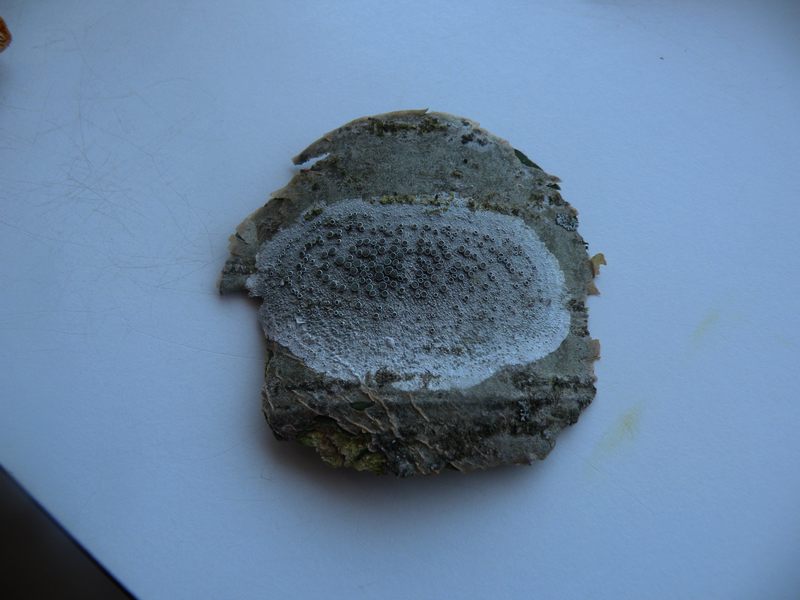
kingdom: Fungi
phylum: Ascomycota
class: Lecanoromycetes
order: Lecanorales
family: Lecanoraceae
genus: Lecanora
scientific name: Lecanora chlarotera
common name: brun kantskivelav
